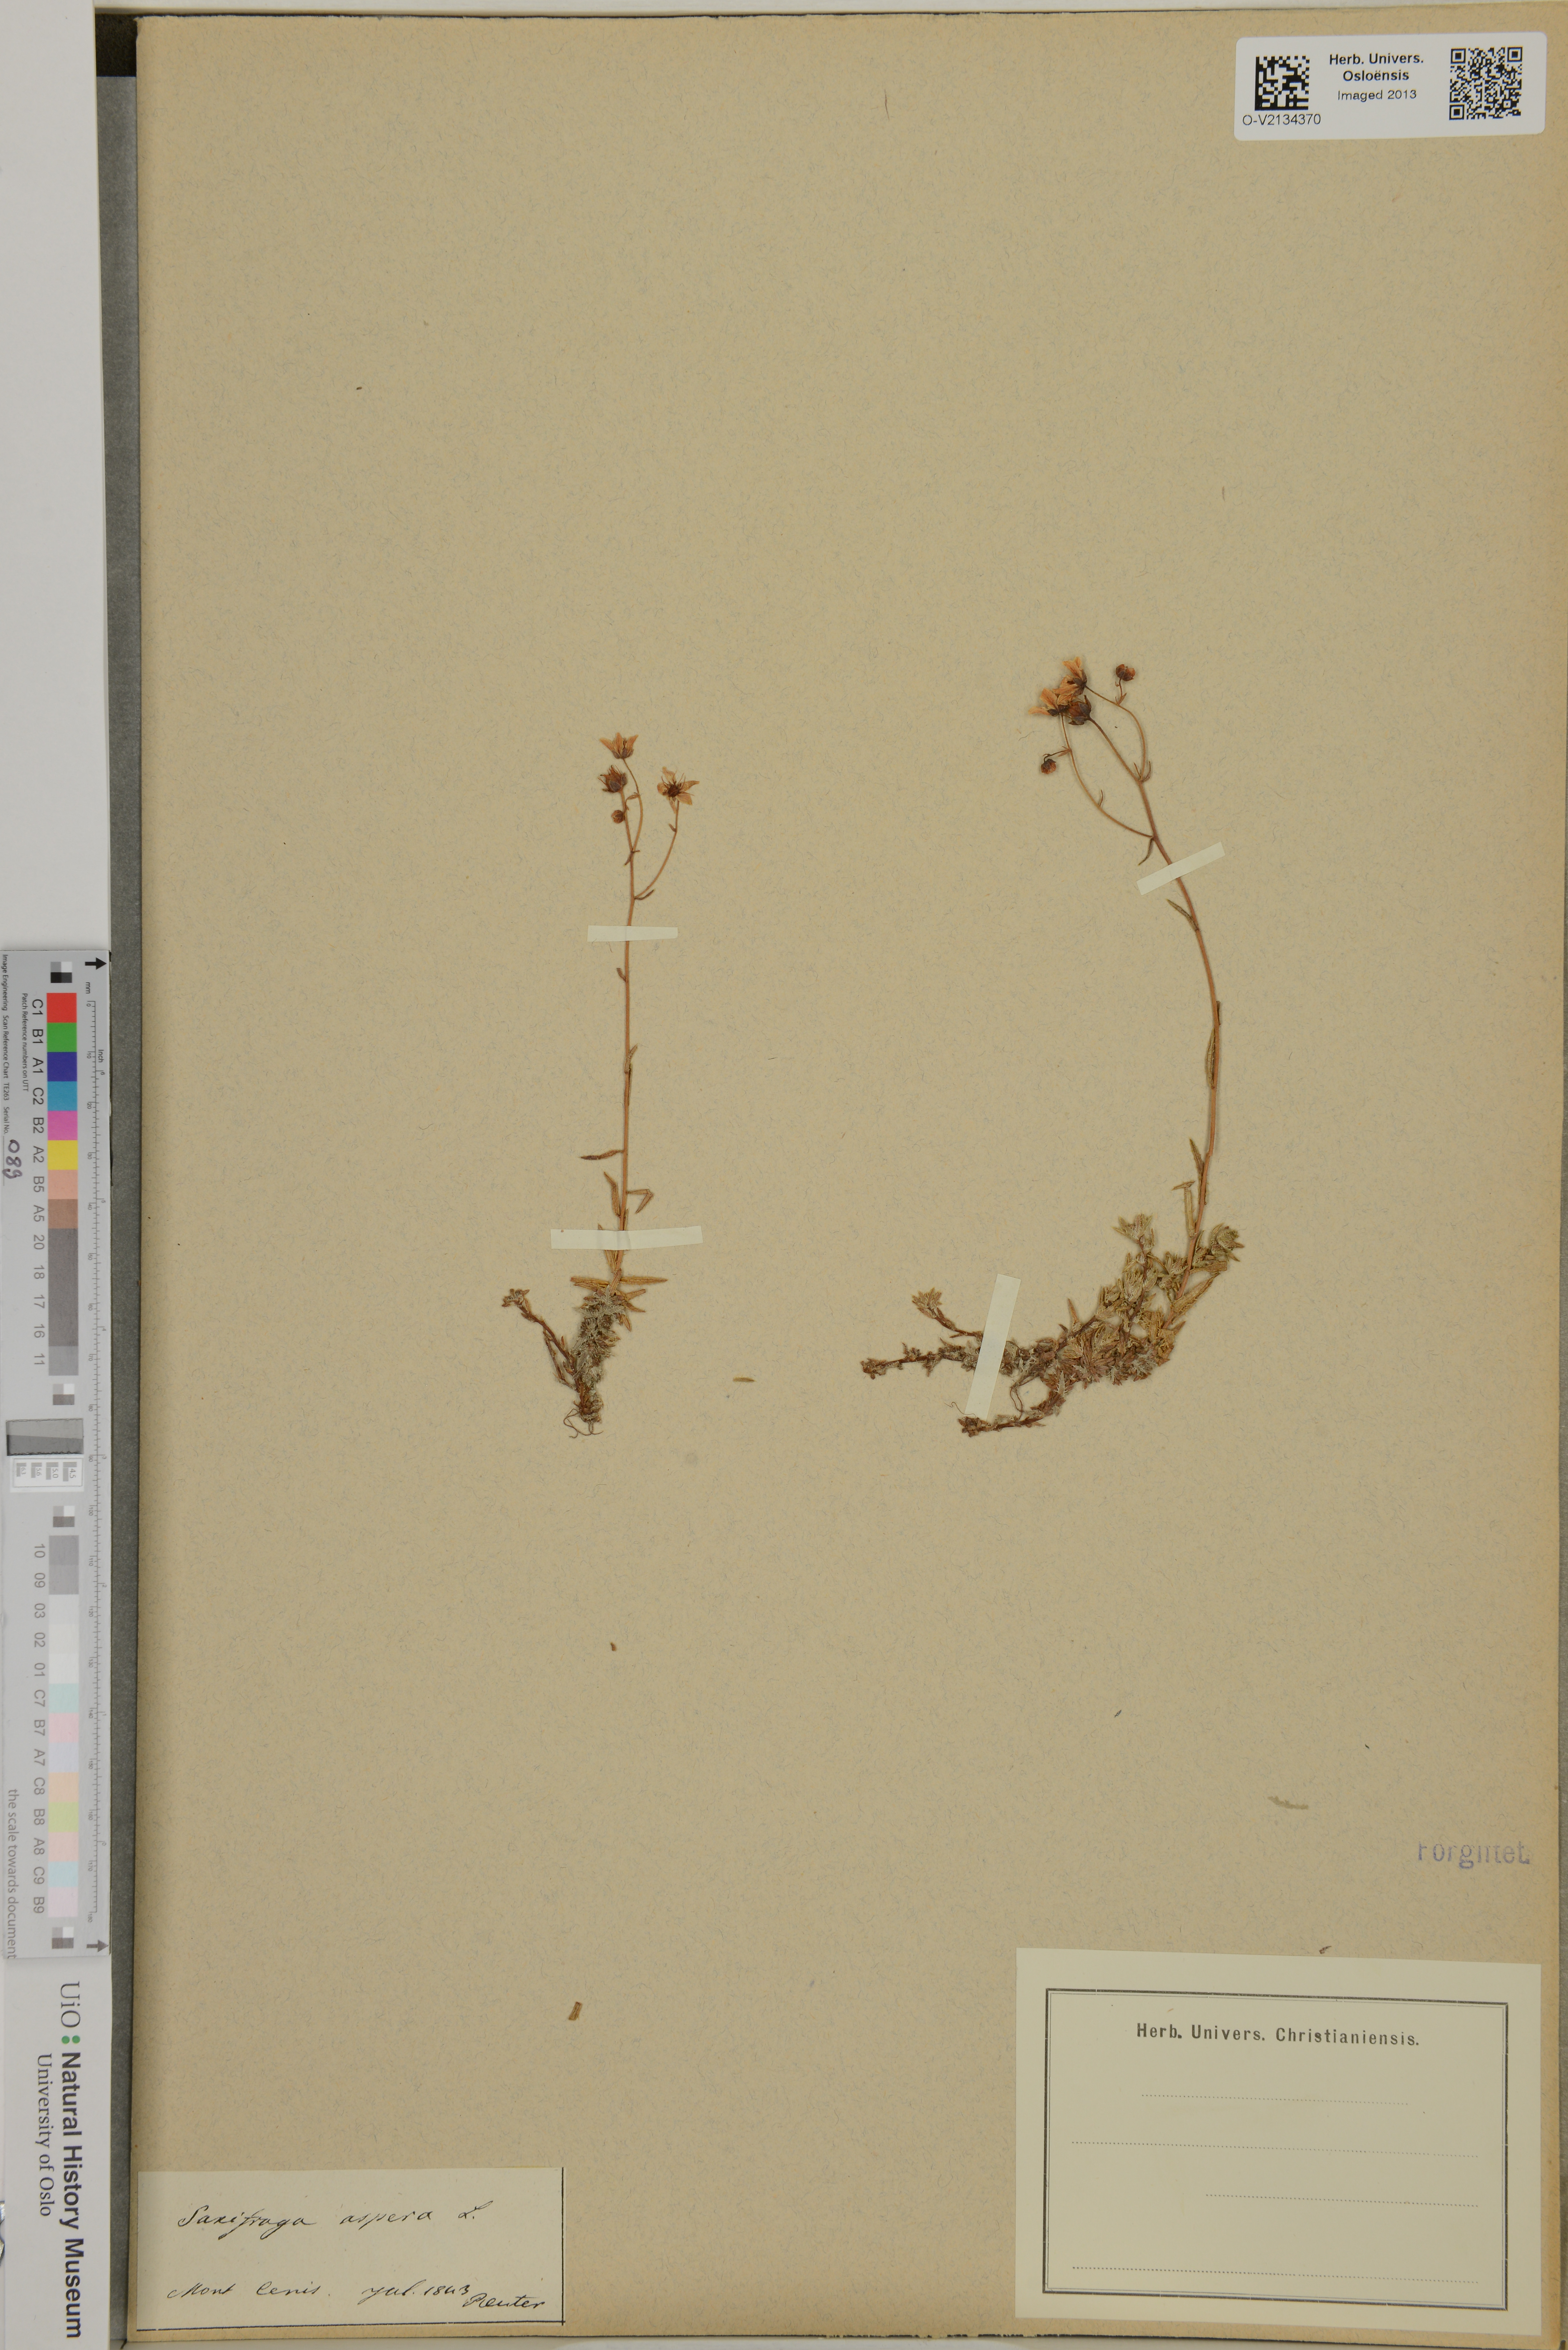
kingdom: Plantae
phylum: Tracheophyta
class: Magnoliopsida
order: Saxifragales
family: Saxifragaceae
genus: Saxifraga
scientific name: Saxifraga aspera
